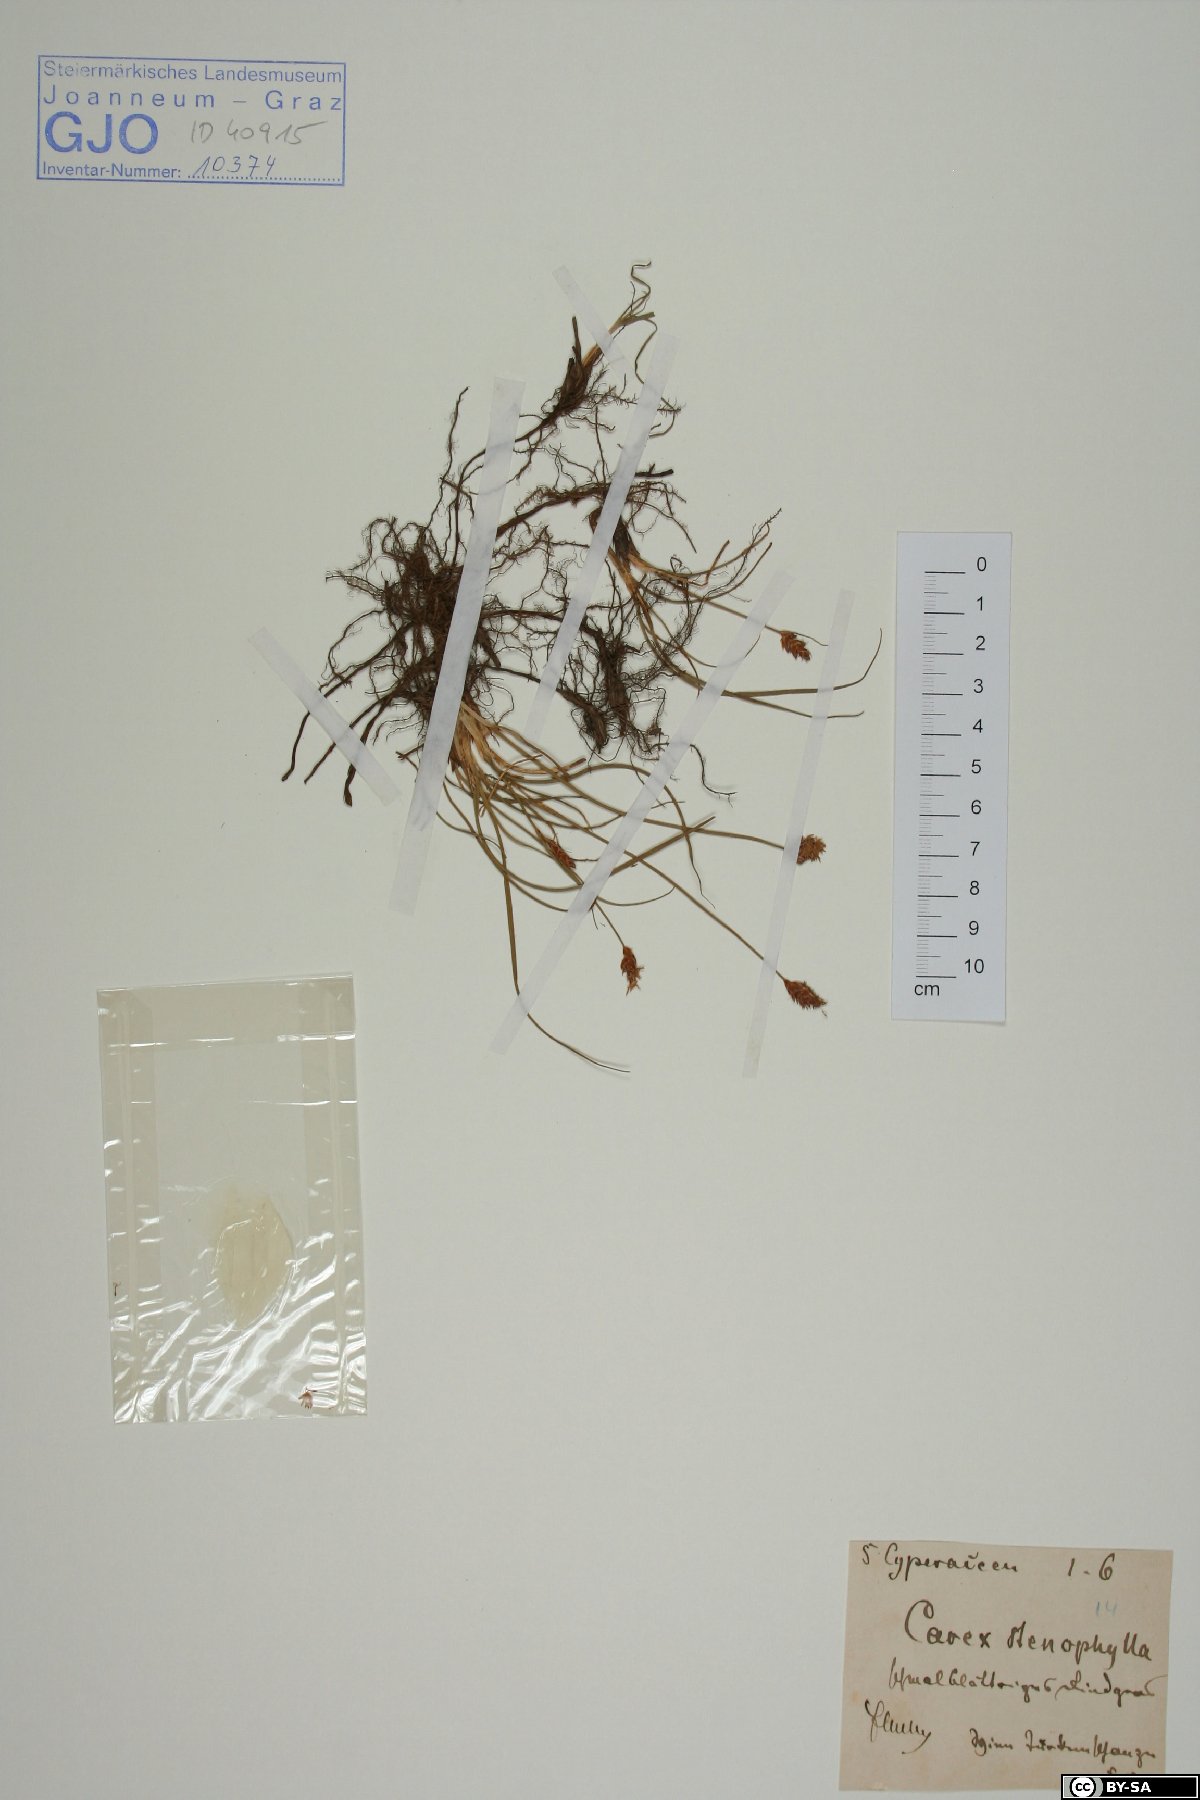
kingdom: Plantae
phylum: Tracheophyta
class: Liliopsida
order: Poales
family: Cyperaceae
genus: Carex
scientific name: Carex stenophylla
